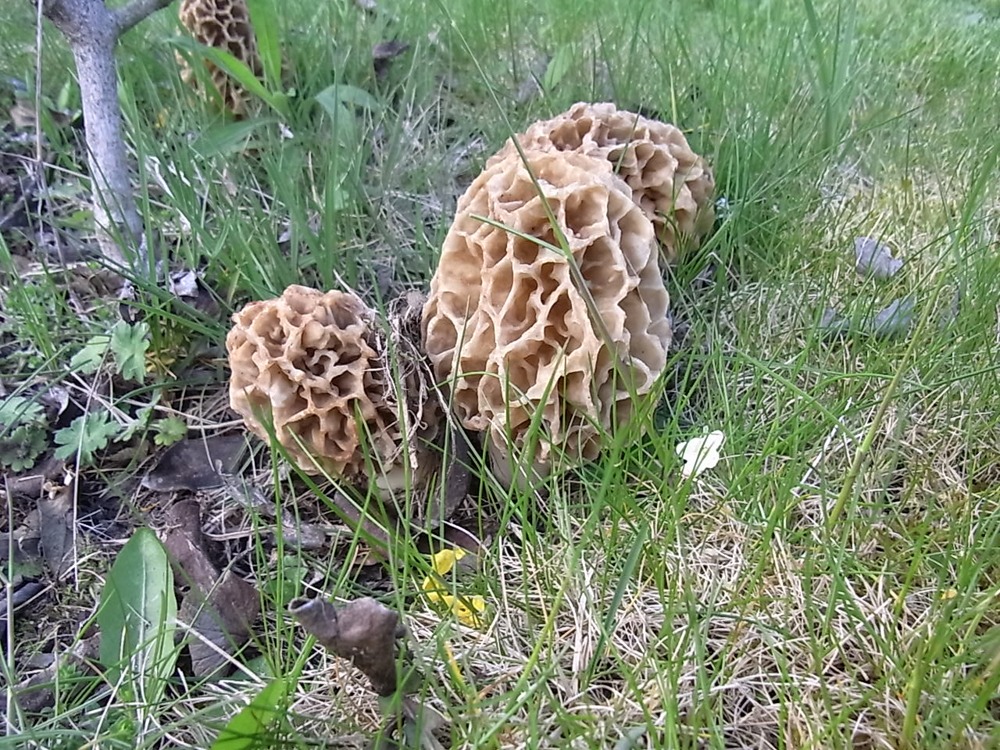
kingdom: Fungi
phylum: Ascomycota
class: Pezizomycetes
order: Pezizales
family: Morchellaceae
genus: Morchella
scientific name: Morchella esculenta
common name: Morel
